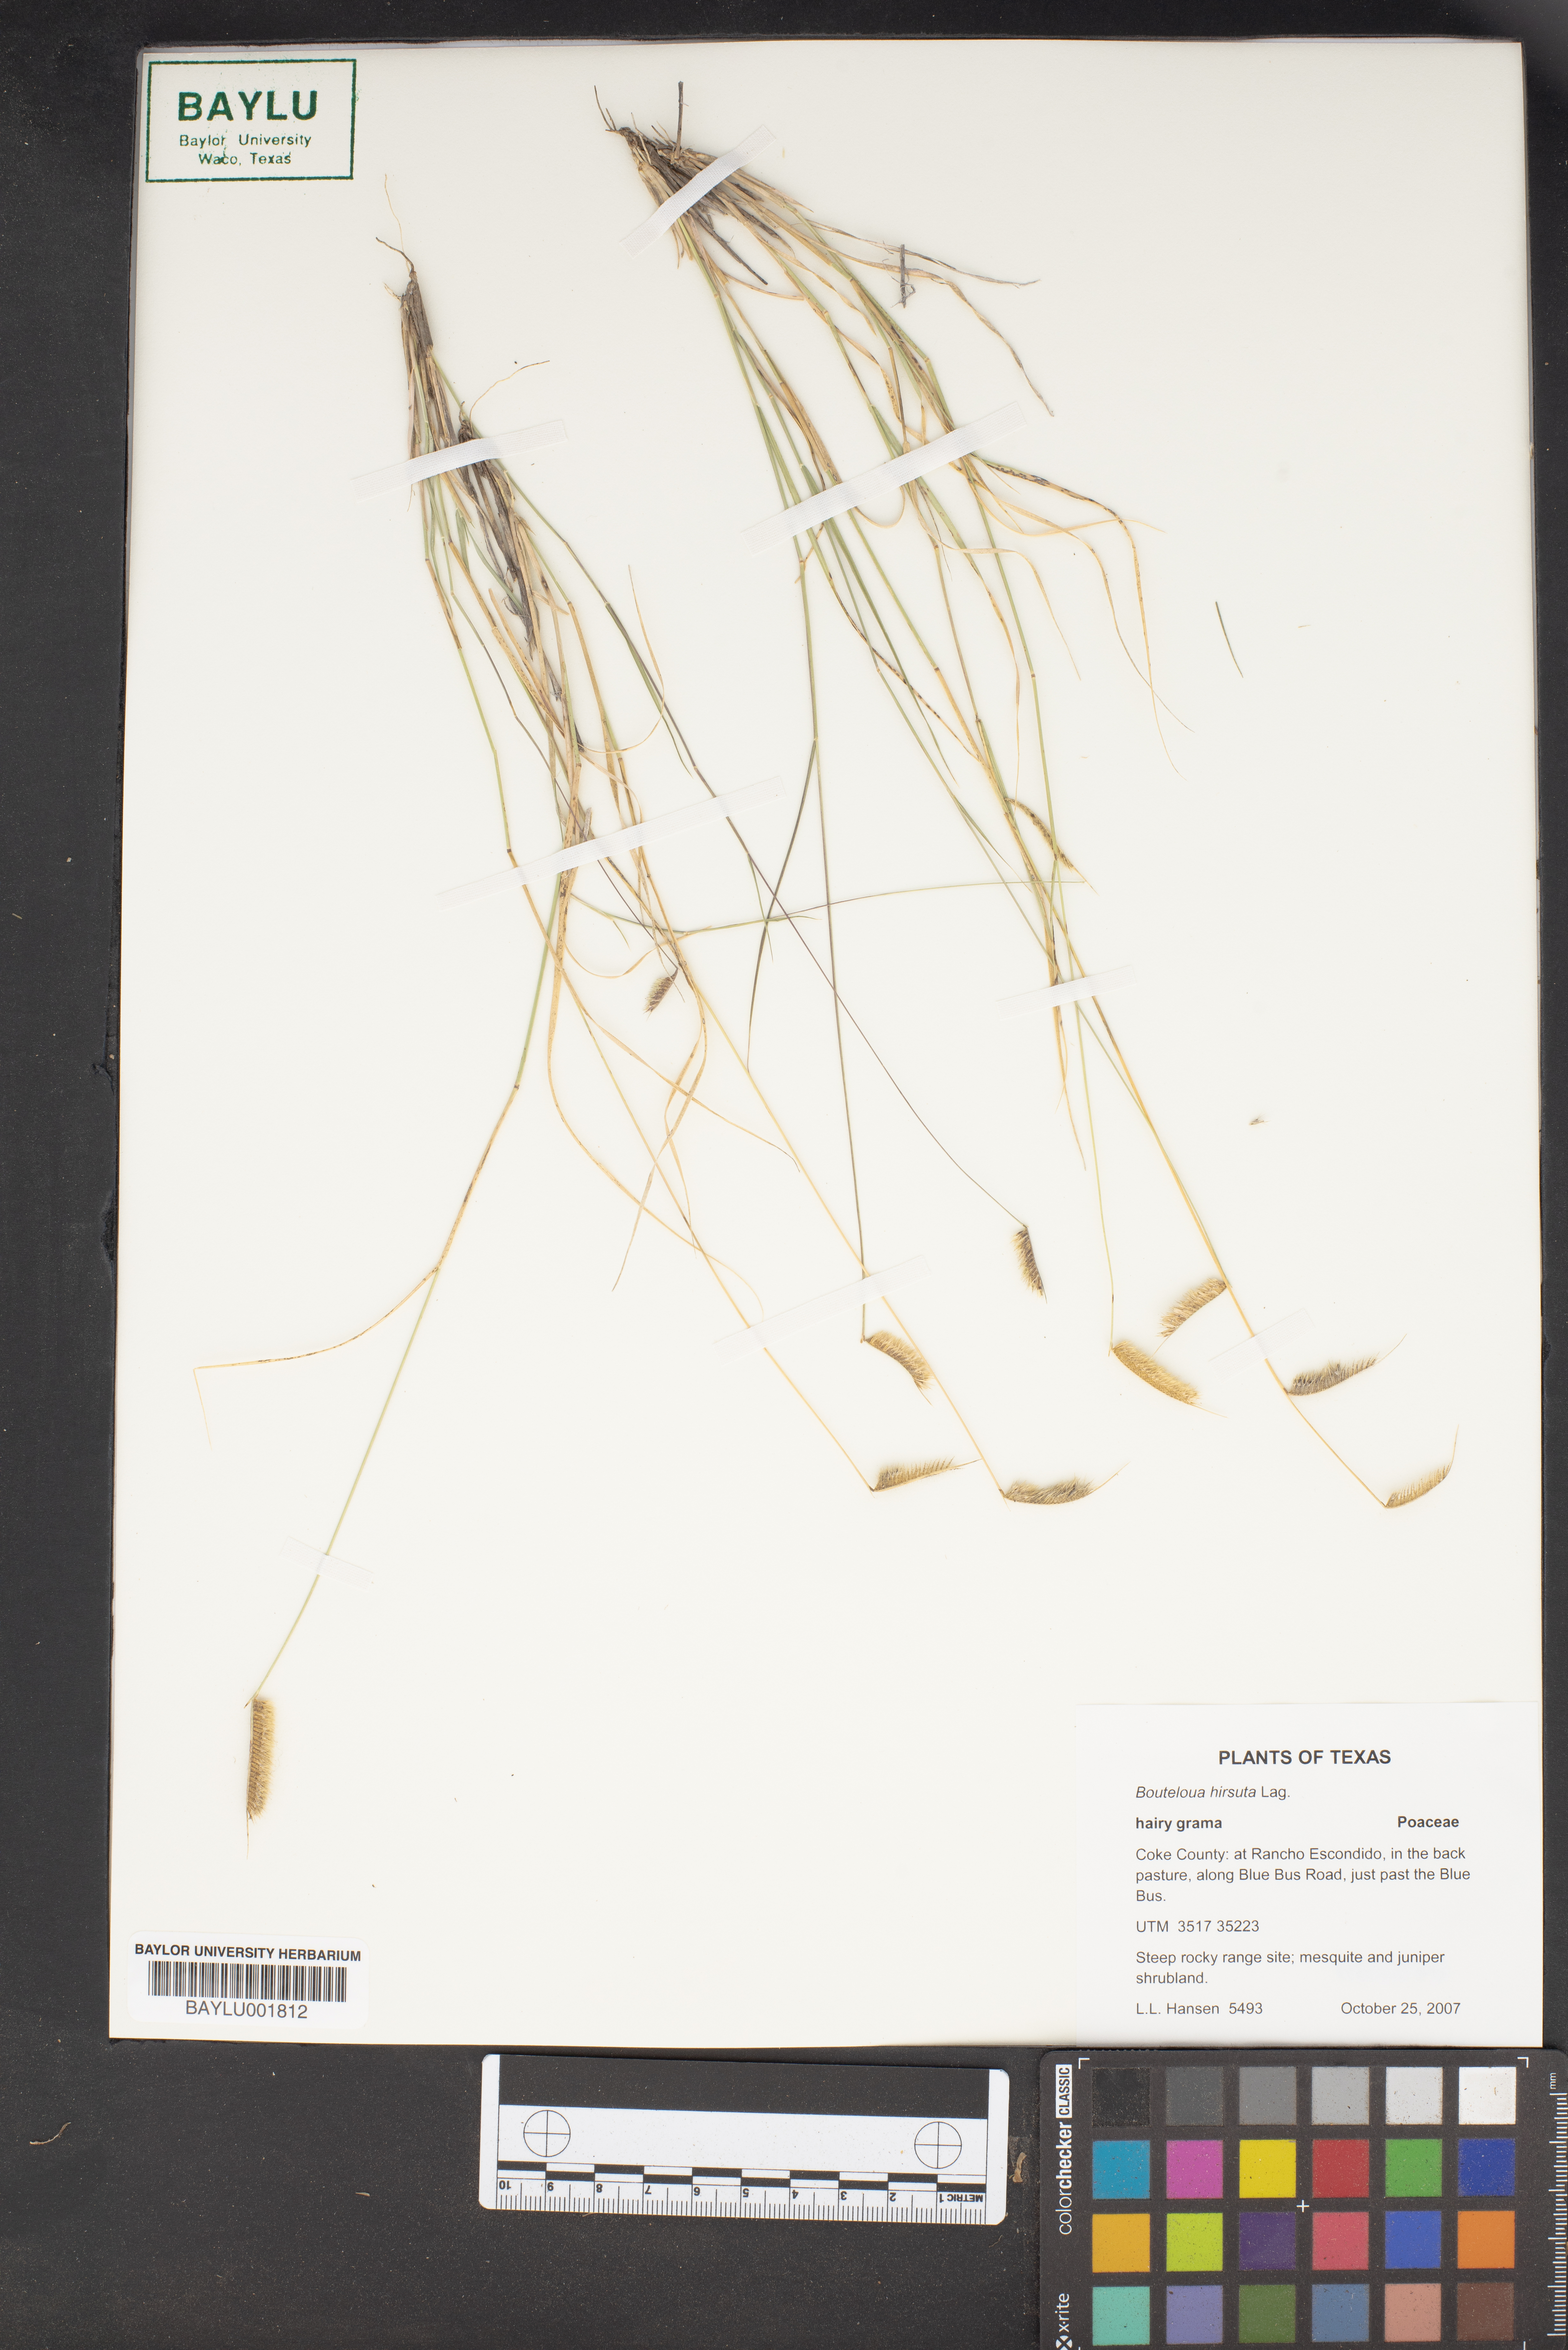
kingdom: Plantae
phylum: Tracheophyta
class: Liliopsida
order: Poales
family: Poaceae
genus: Bouteloua
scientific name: Bouteloua hirsuta
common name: Hairy grama
